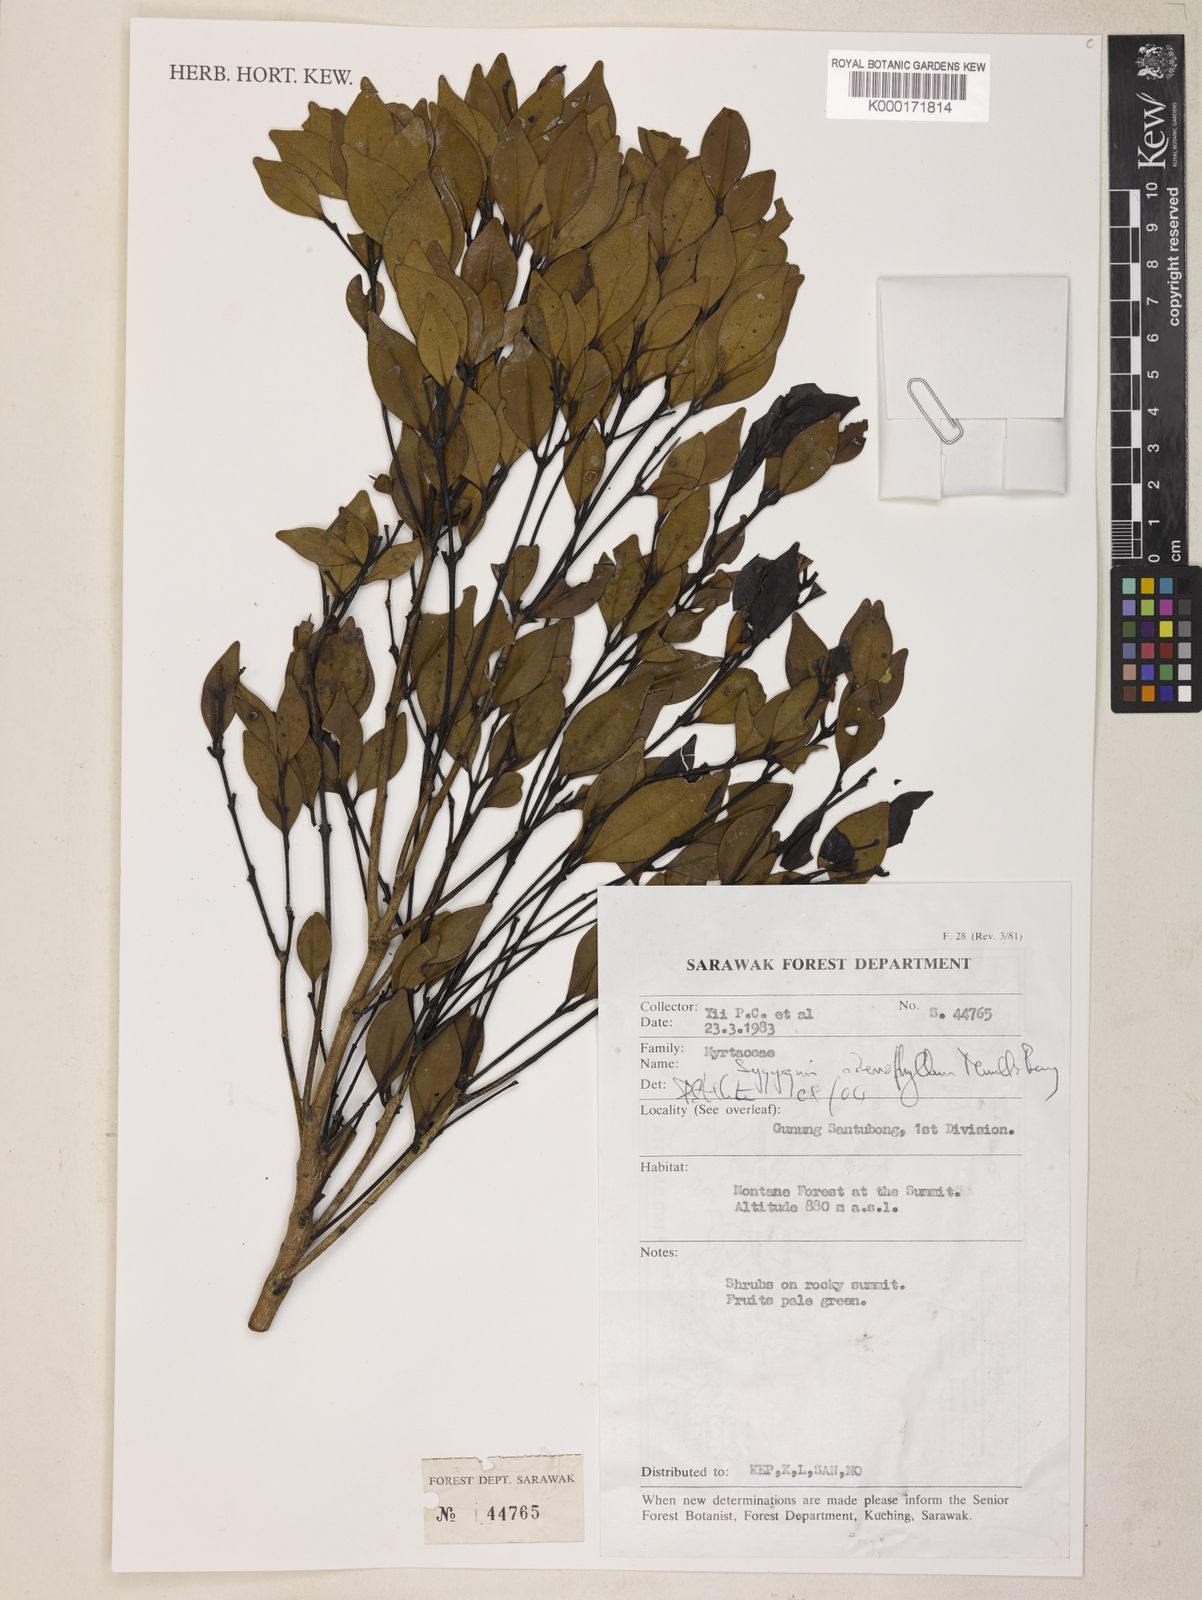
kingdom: Plantae
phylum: Tracheophyta
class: Magnoliopsida
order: Myrtales
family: Myrtaceae
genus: Syzygium
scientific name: Syzygium adenophyllum
